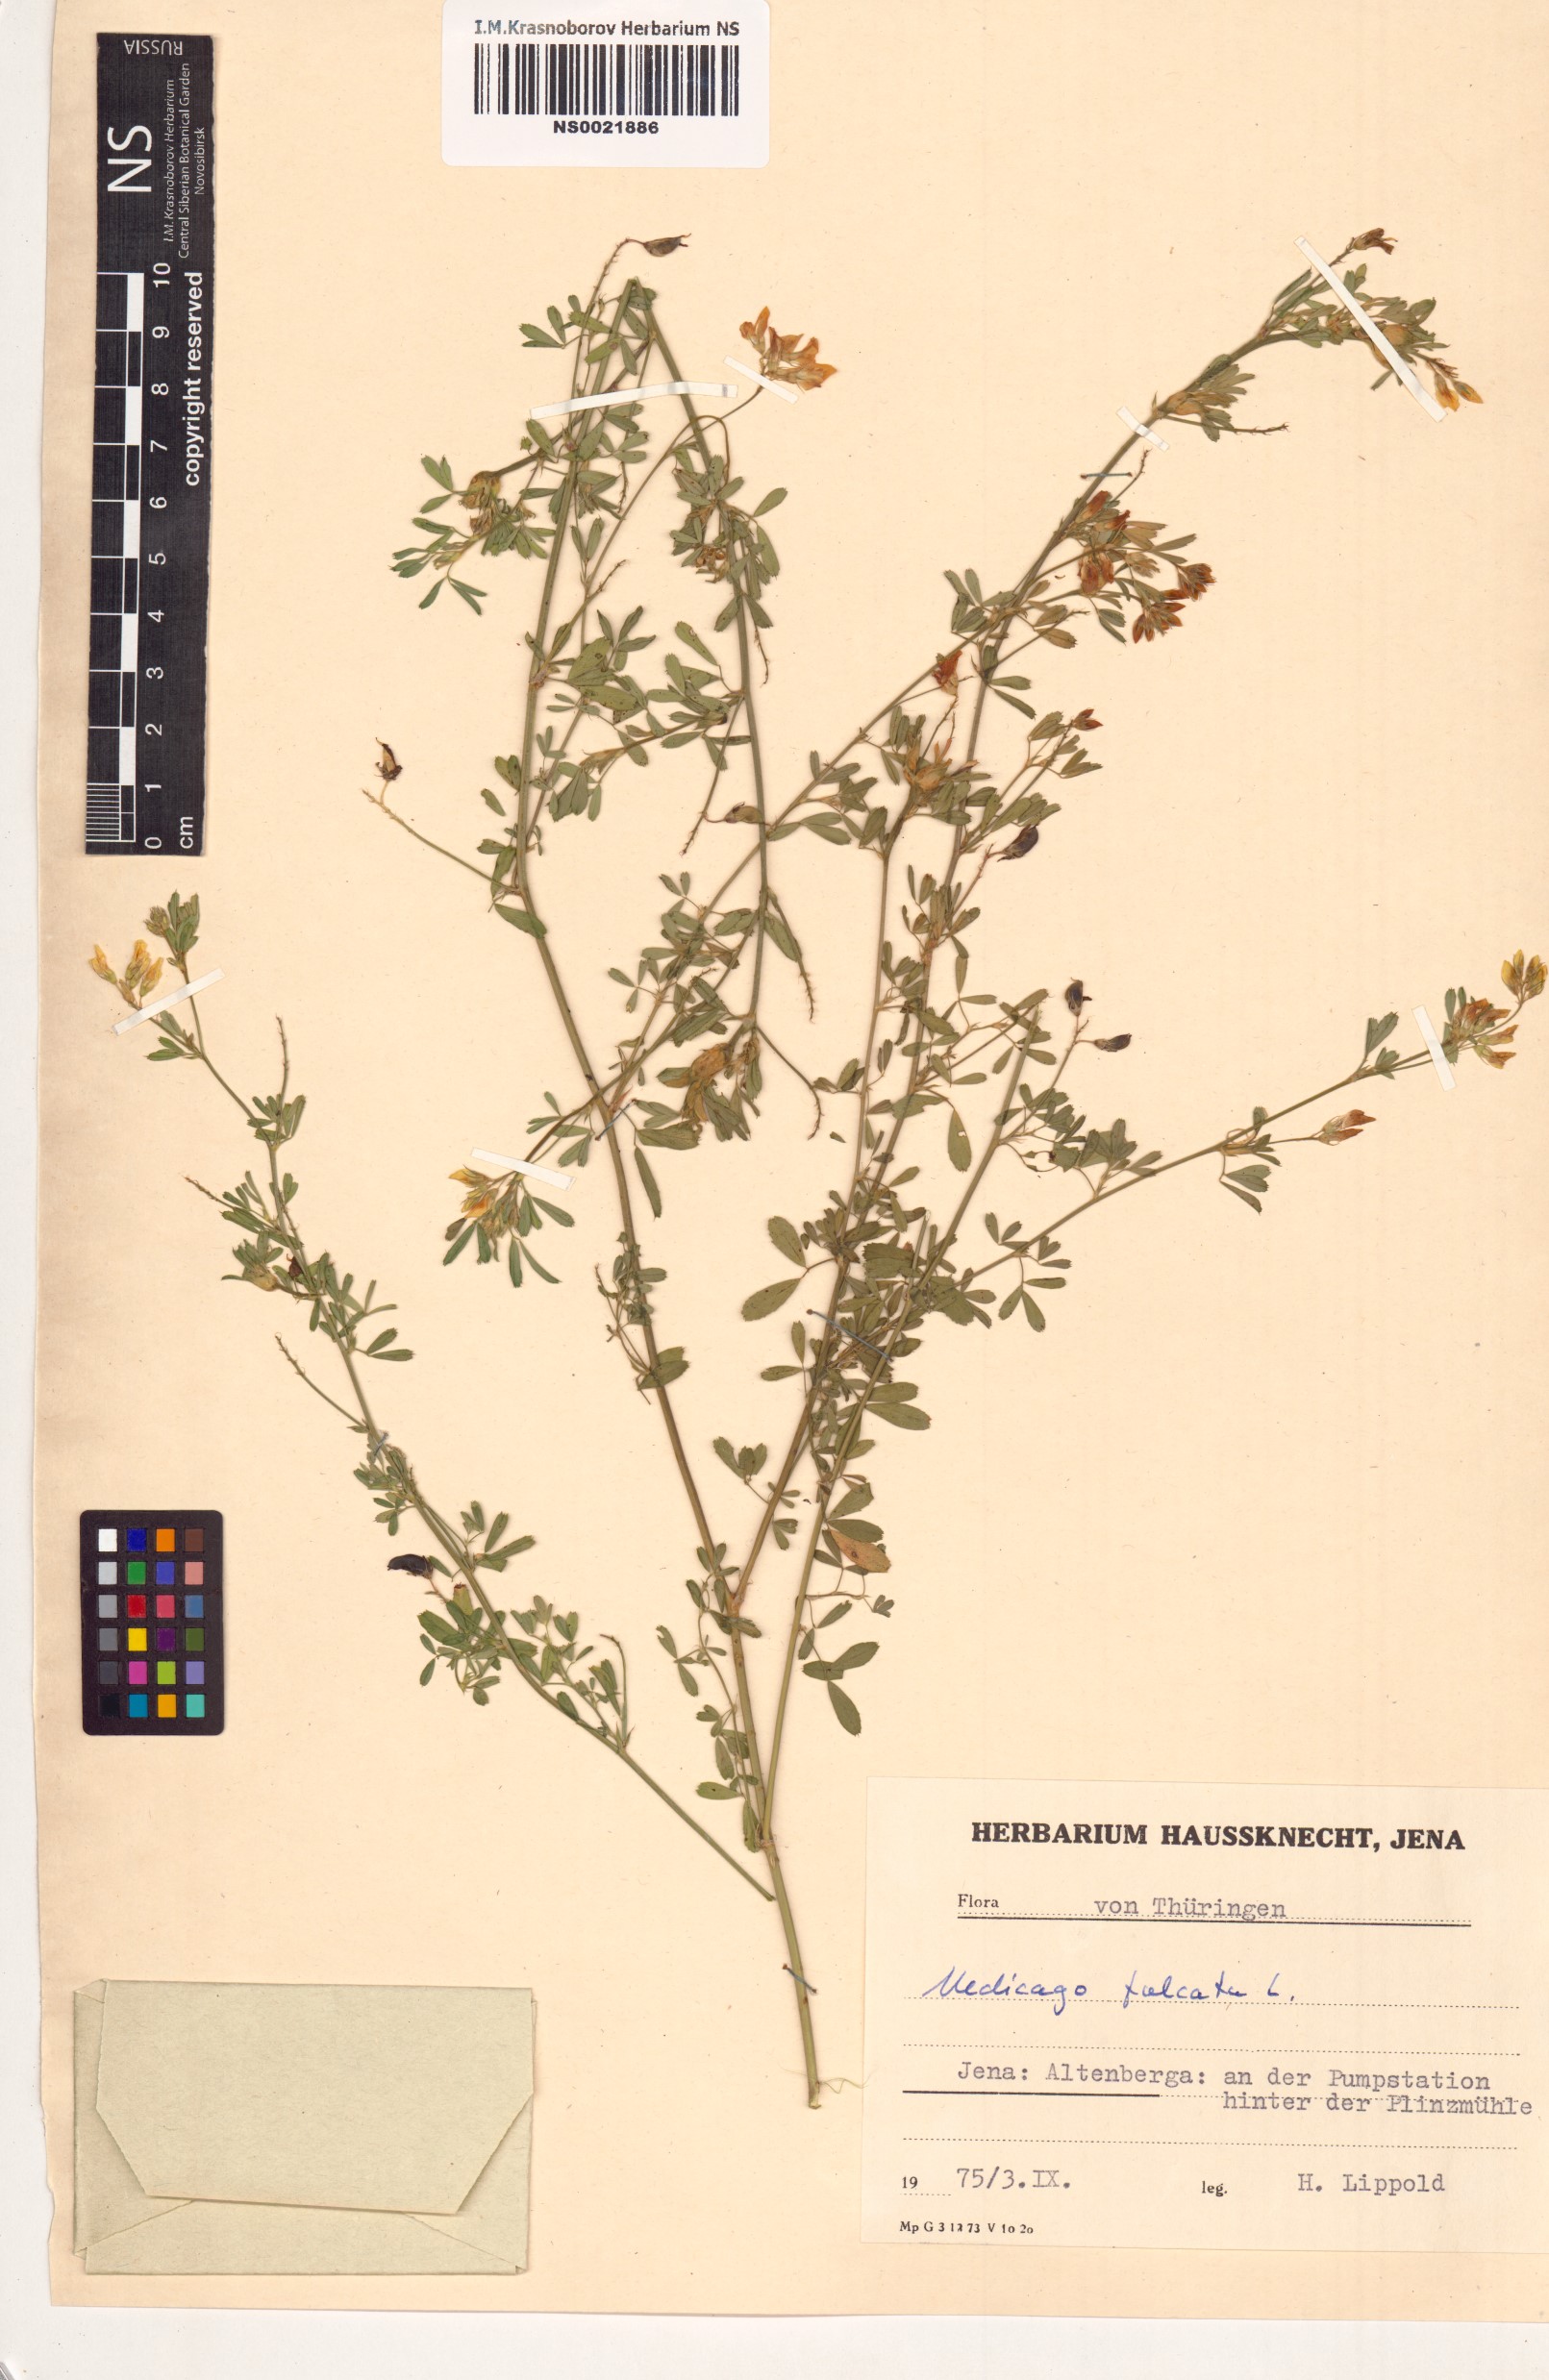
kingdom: Plantae
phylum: Tracheophyta
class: Magnoliopsida
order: Fabales
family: Fabaceae
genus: Medicago
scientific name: Medicago falcata
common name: Sickle medick
